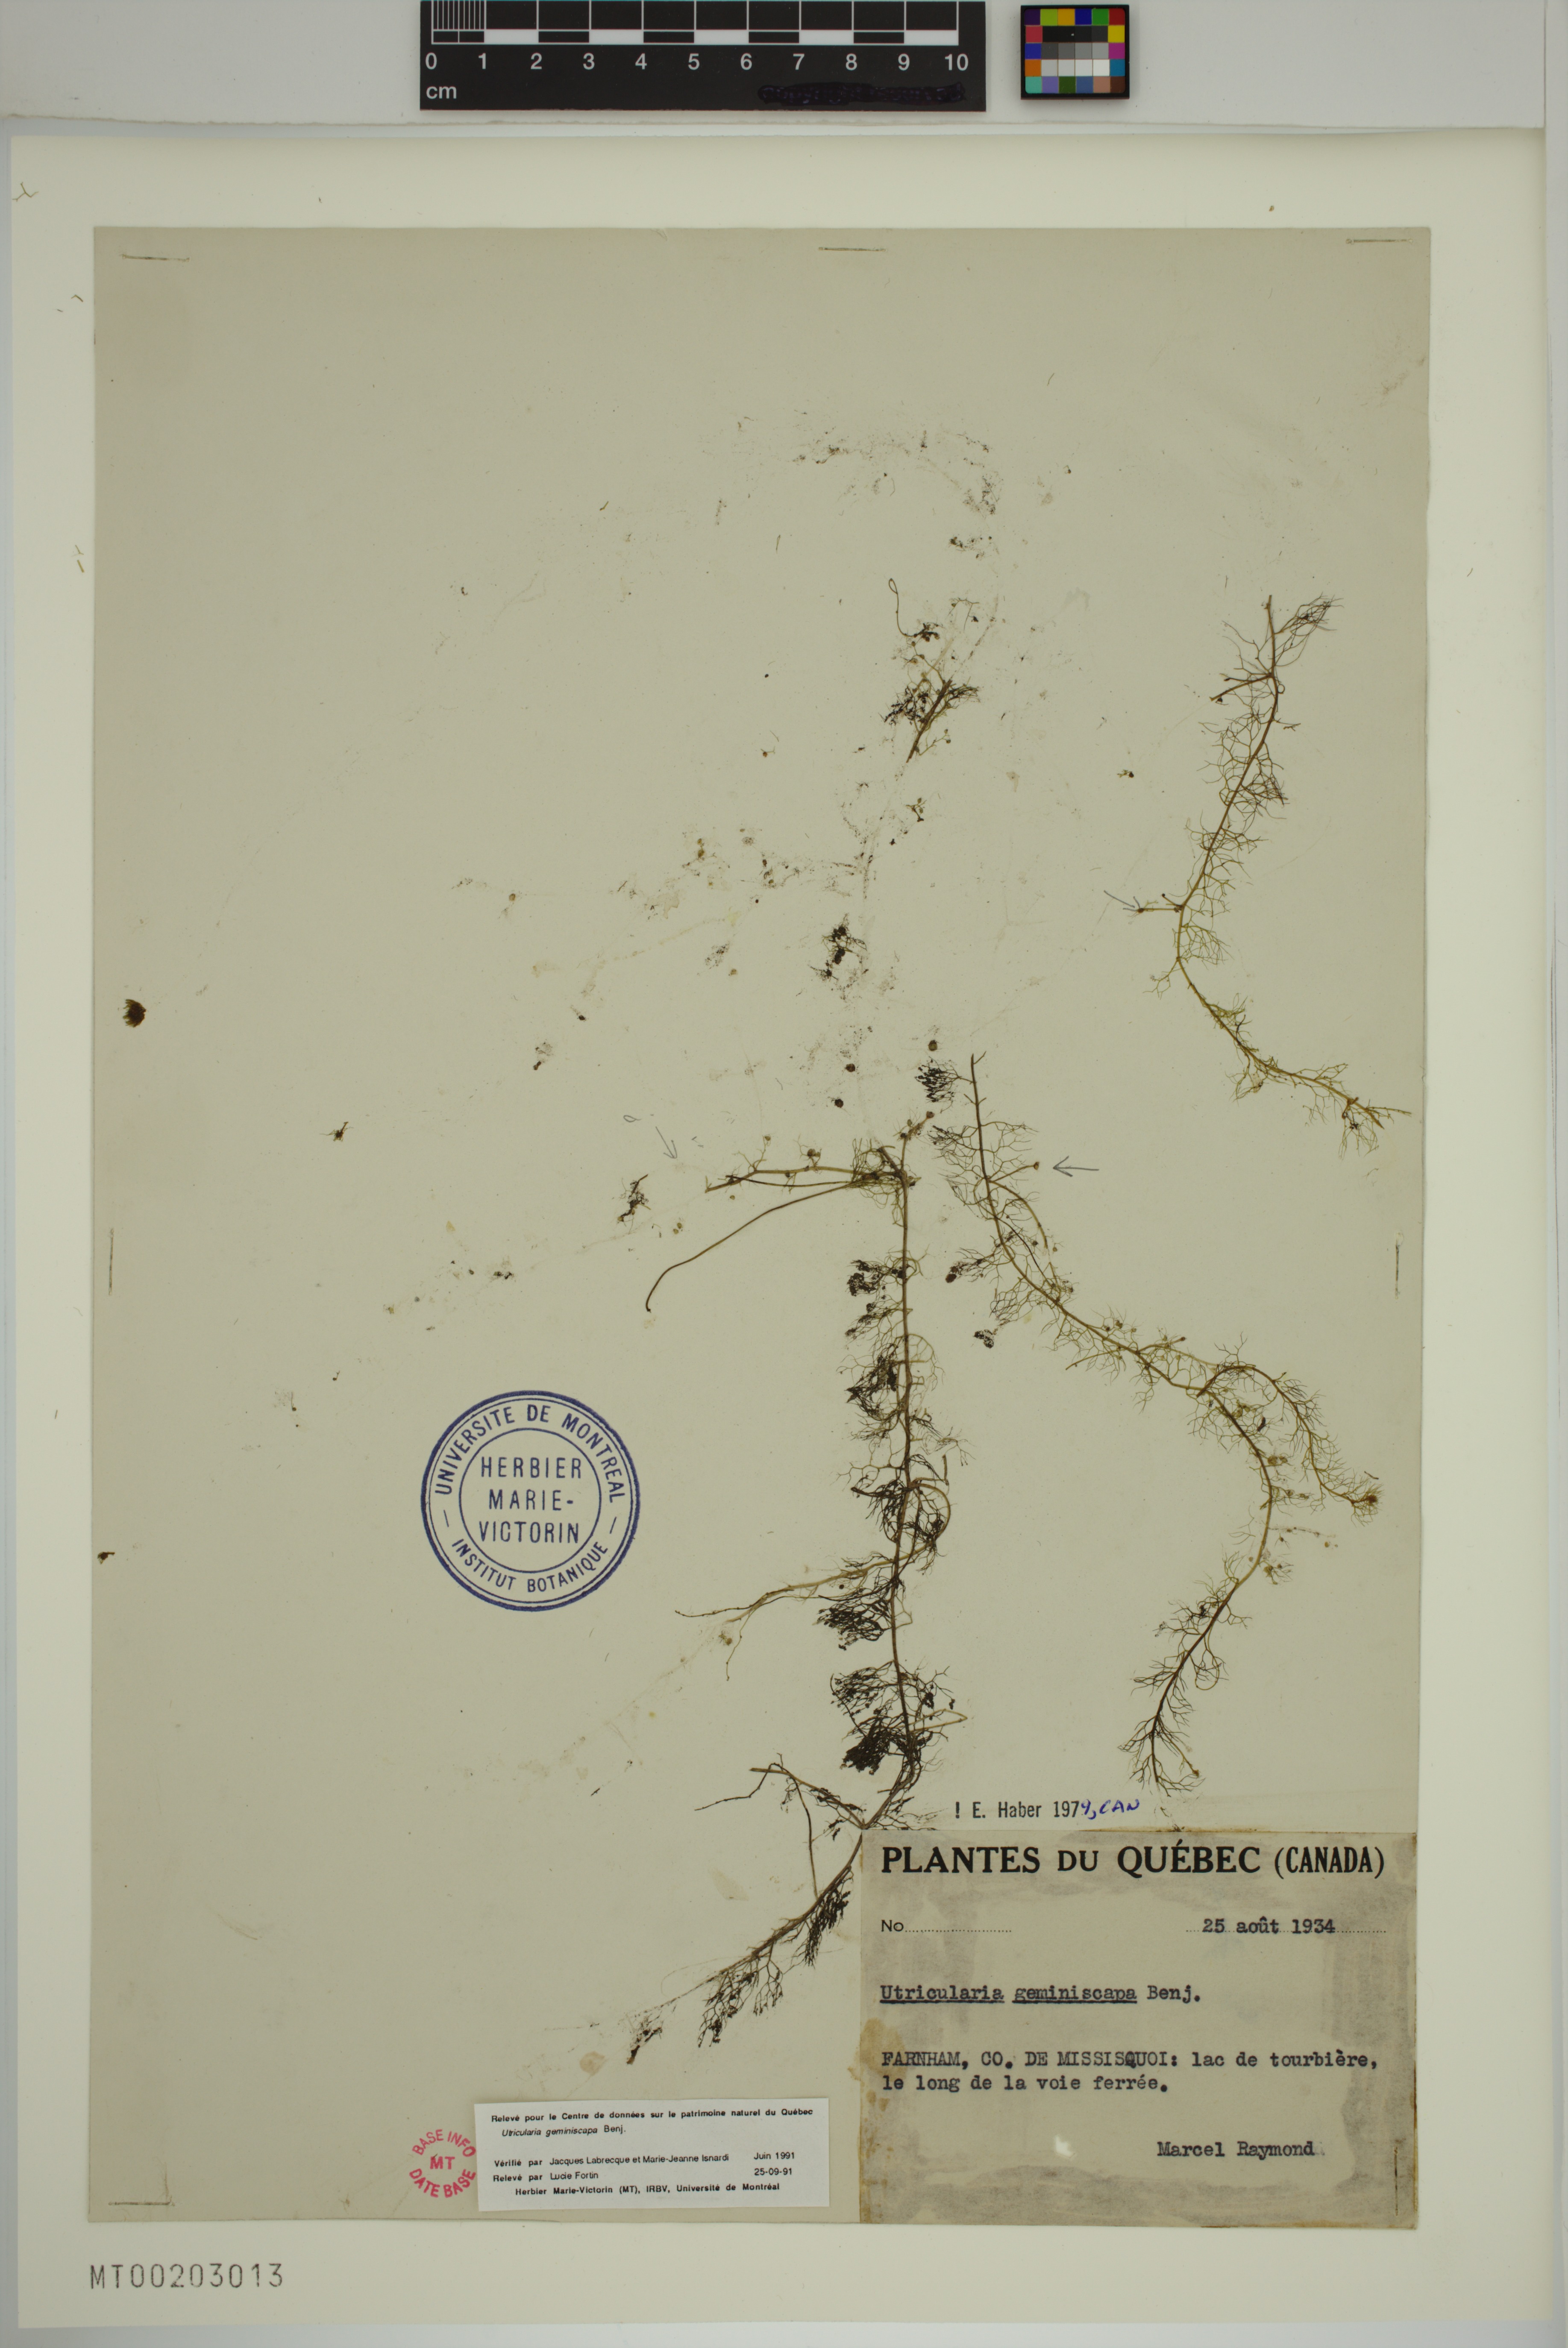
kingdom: Plantae
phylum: Tracheophyta
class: Magnoliopsida
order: Lamiales
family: Lentibulariaceae
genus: Utricularia
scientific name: Utricularia geminiscapa
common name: Hidden-fruit bladderwort
